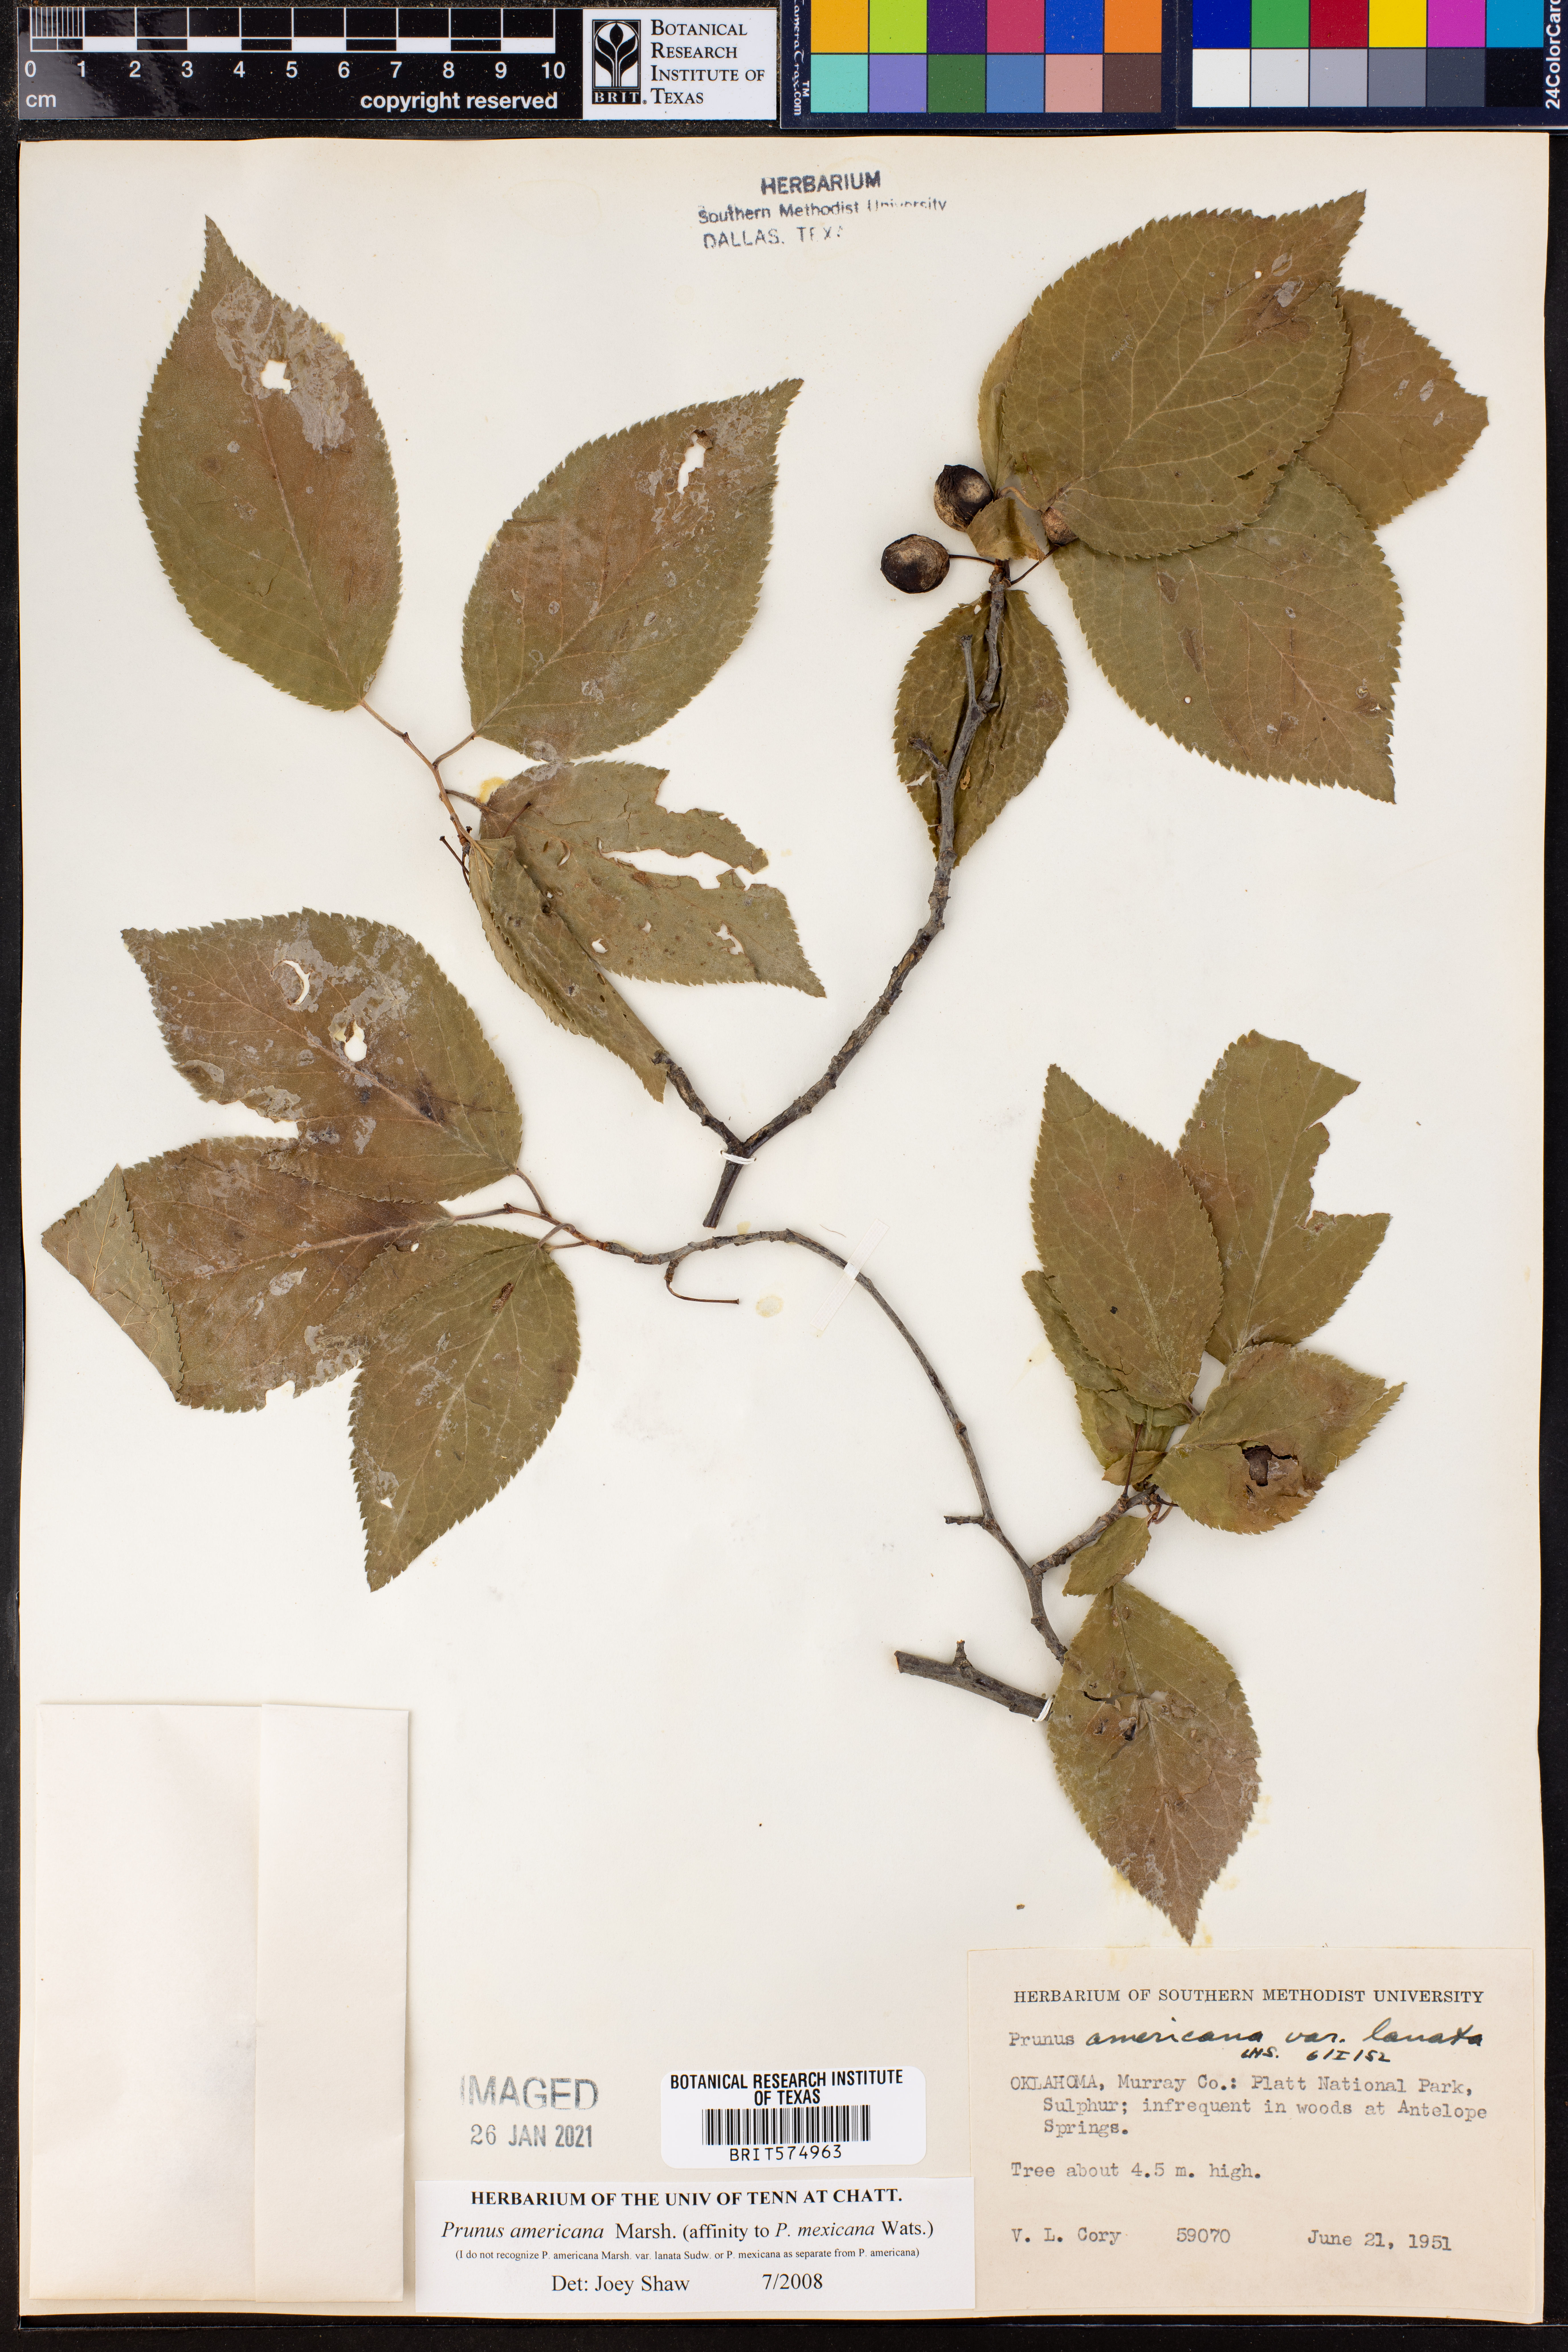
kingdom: Plantae
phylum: Tracheophyta
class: Magnoliopsida
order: Rosales
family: Rosaceae
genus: Prunus
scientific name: Prunus americana
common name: American plum
